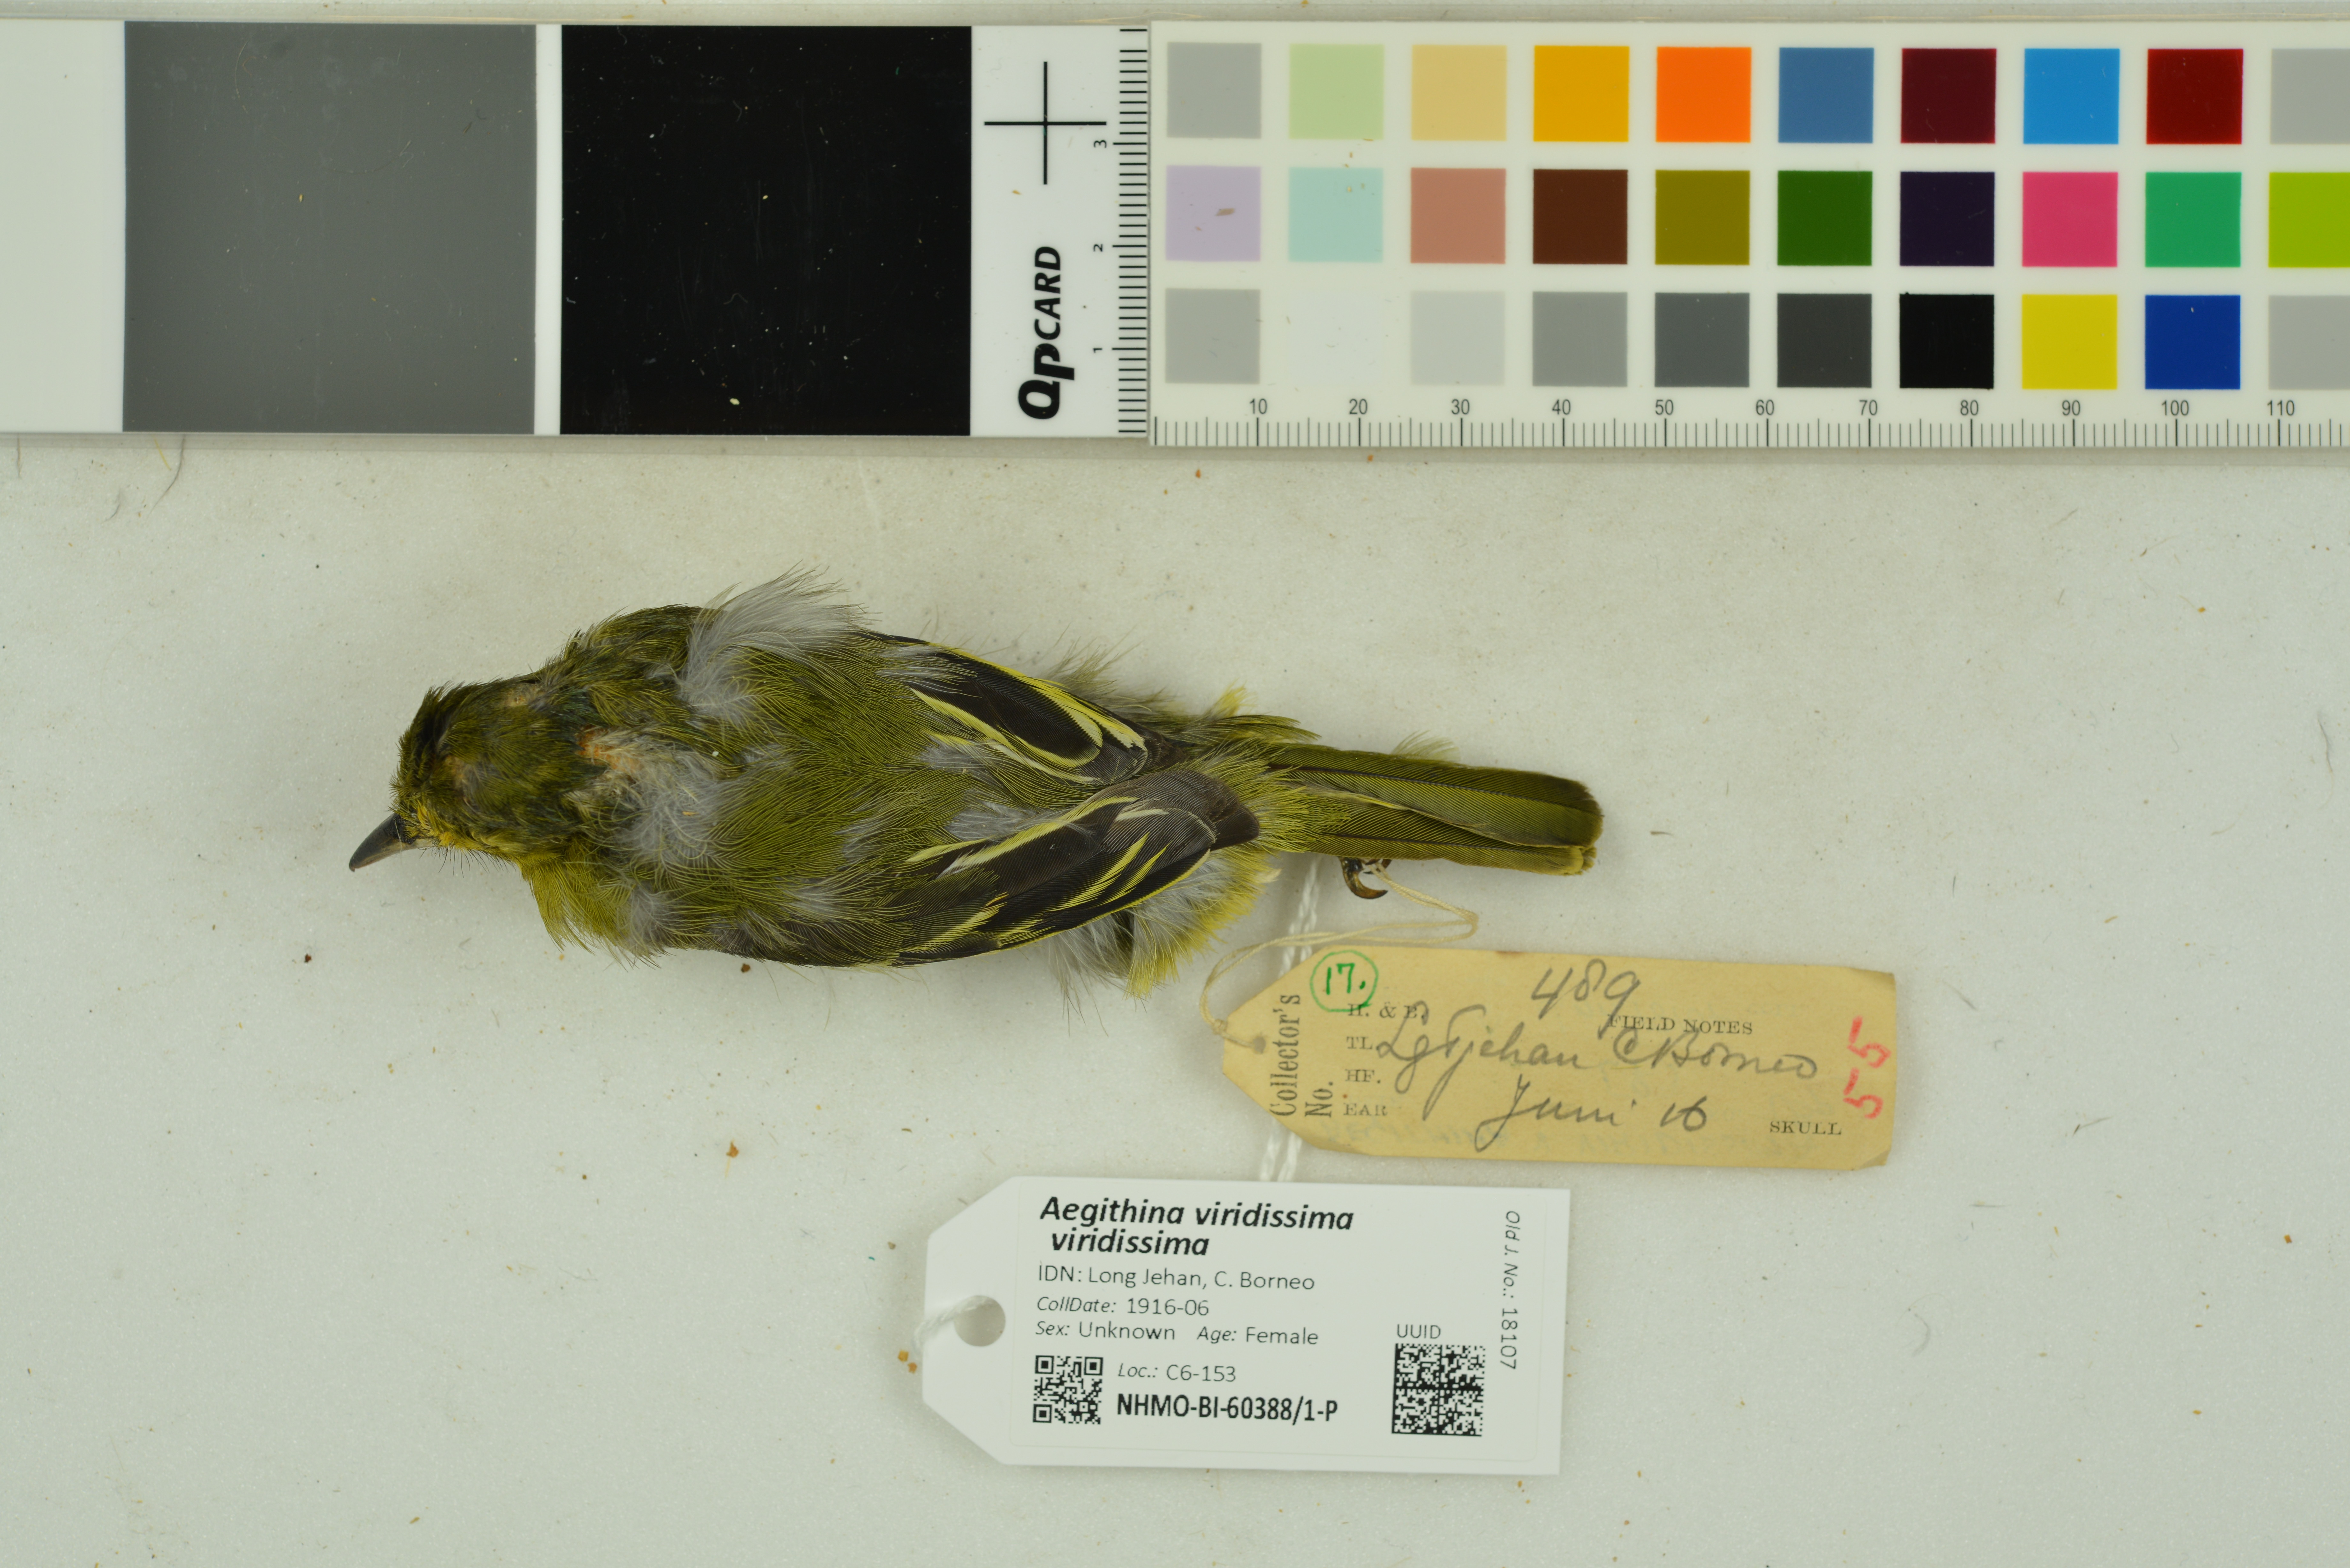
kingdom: Animalia
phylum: Chordata
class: Aves
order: Passeriformes
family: Aegithinidae
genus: Aegithina
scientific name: Aegithina viridissima
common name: Green iora
